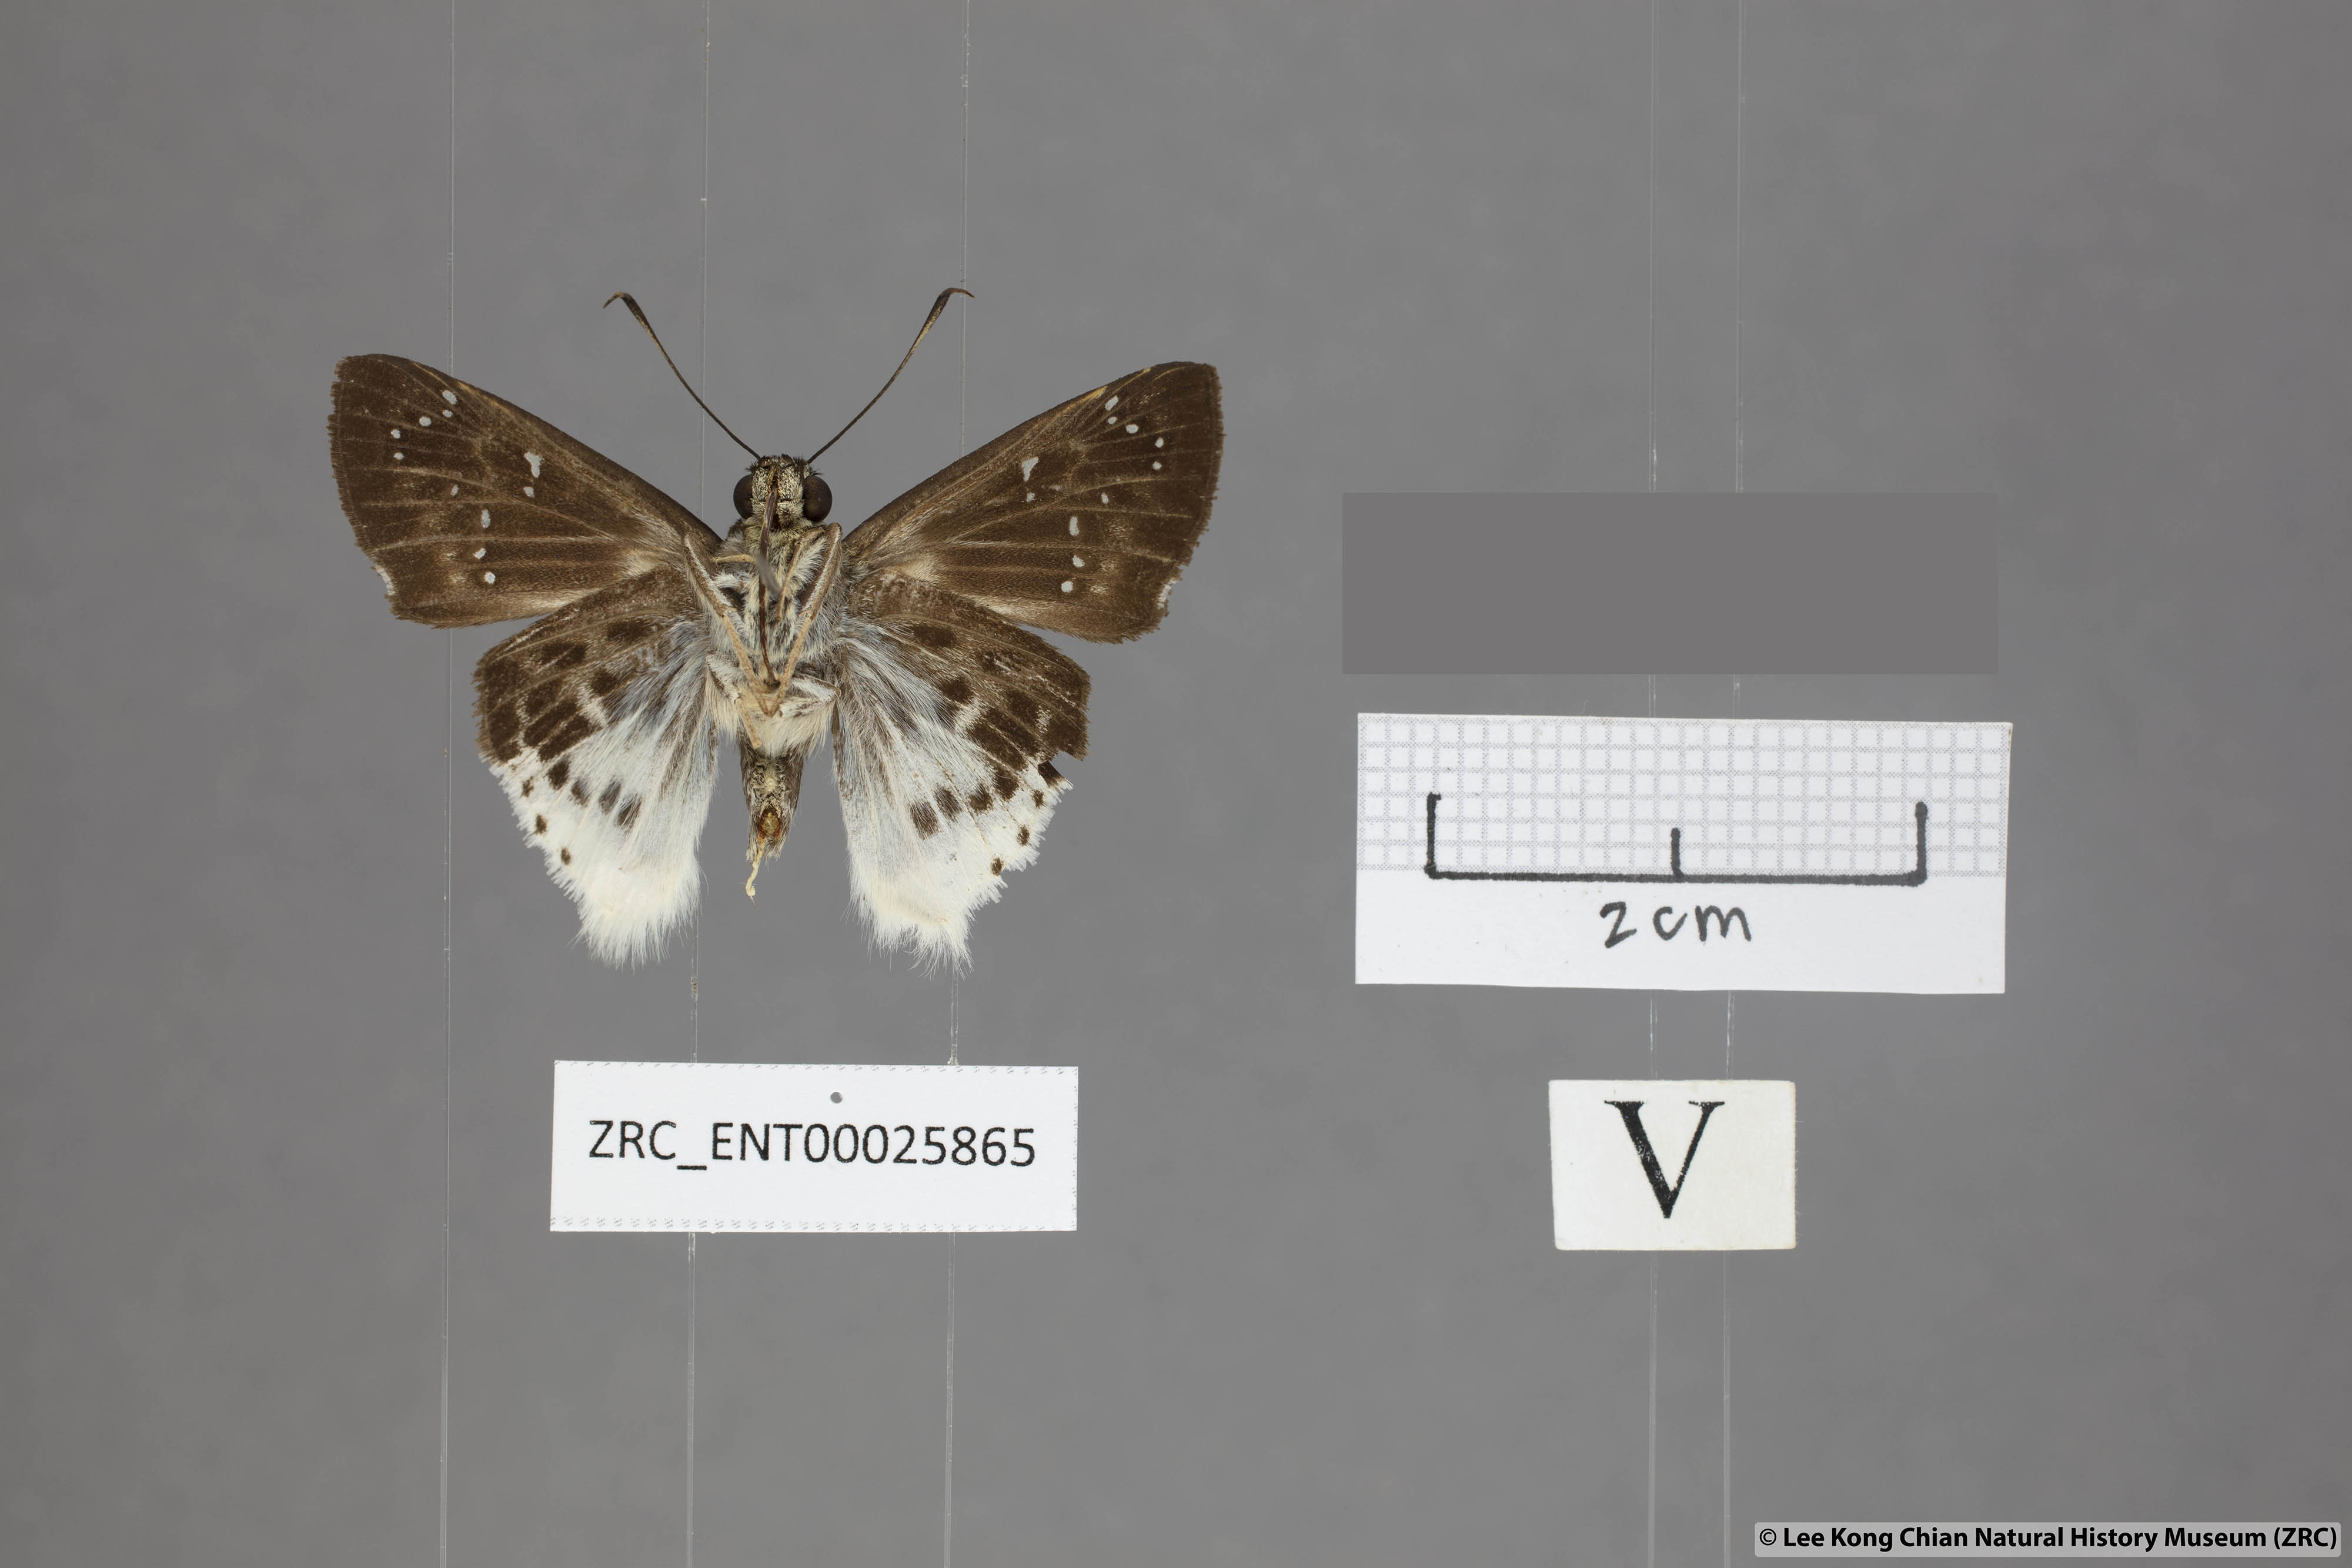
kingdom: Animalia
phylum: Arthropoda
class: Insecta
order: Lepidoptera
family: Hesperiidae
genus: Darpa
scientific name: Darpa striata
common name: Striated angle
